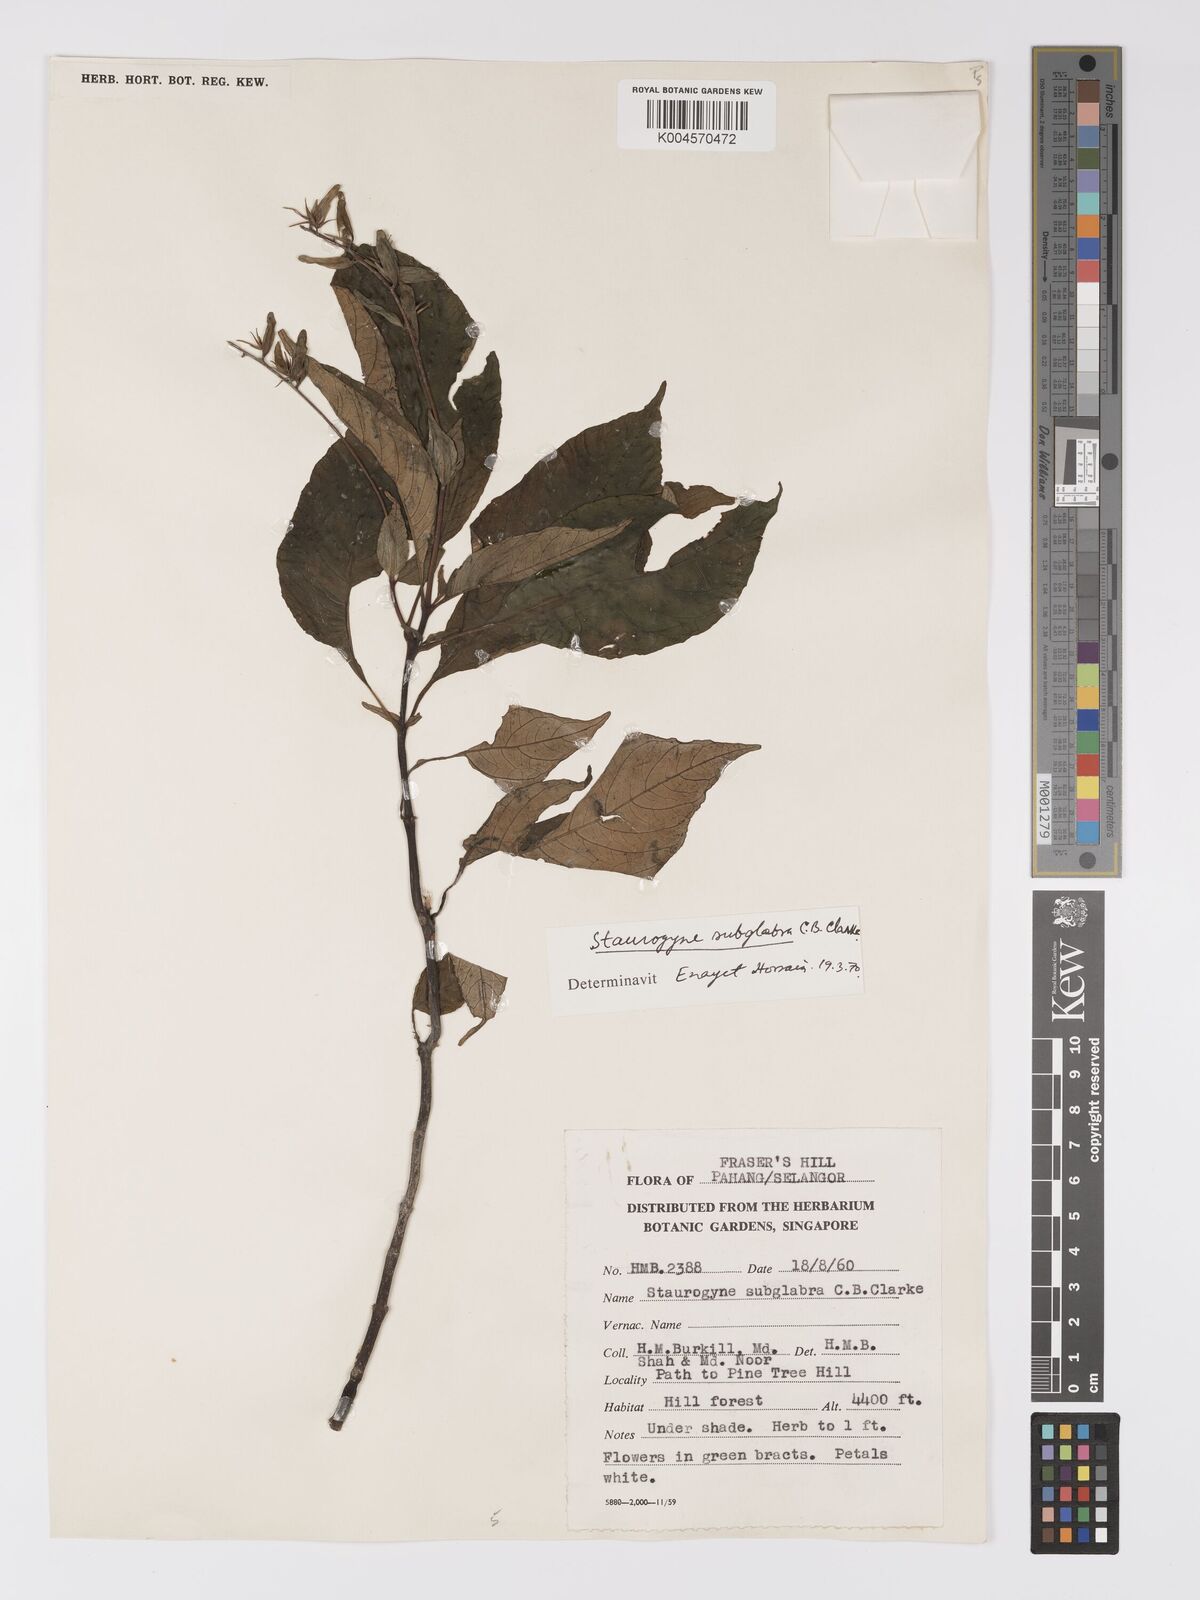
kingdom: Plantae
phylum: Tracheophyta
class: Magnoliopsida
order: Lamiales
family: Acanthaceae
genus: Staurogyne
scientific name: Staurogyne subglabra
